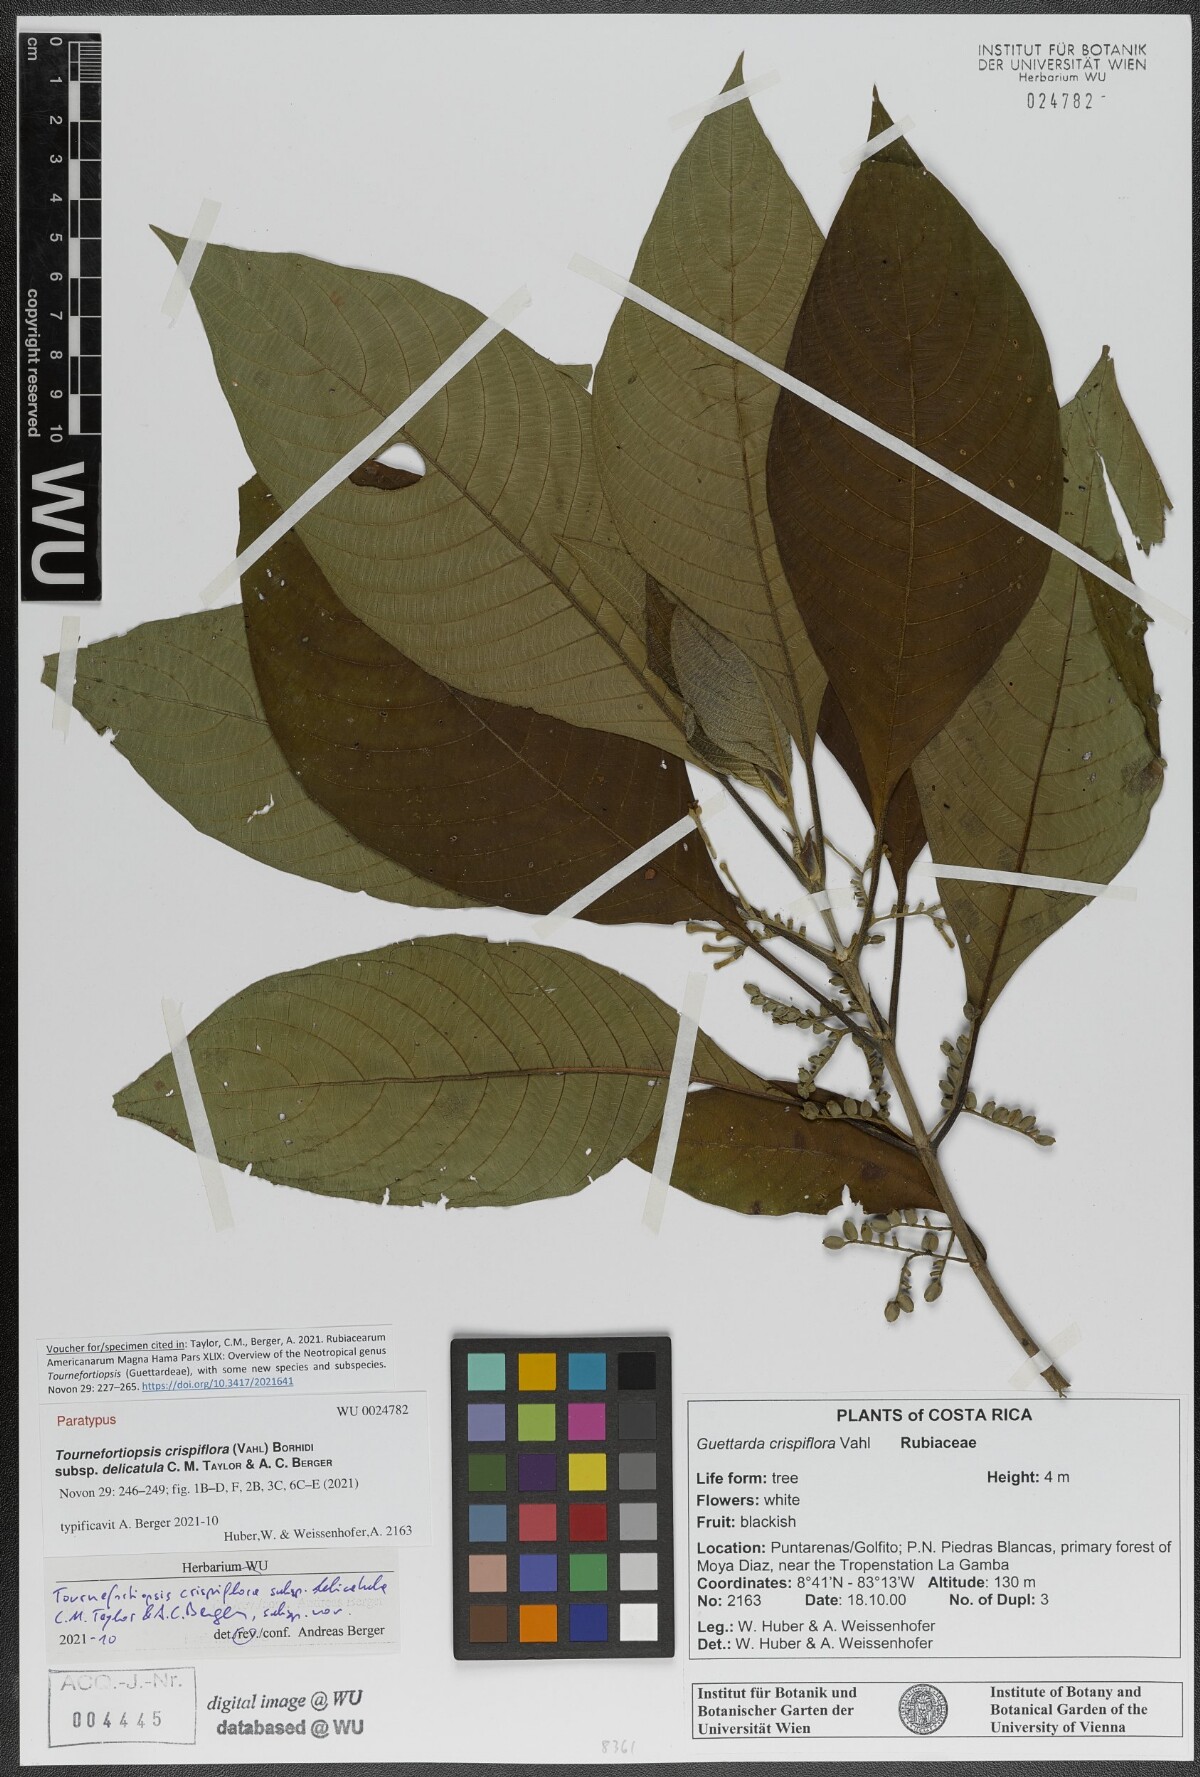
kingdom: Plantae
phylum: Tracheophyta
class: Magnoliopsida
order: Gentianales
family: Rubiaceae
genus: Tournefortiopsis
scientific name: Tournefortiopsis crispiflora
